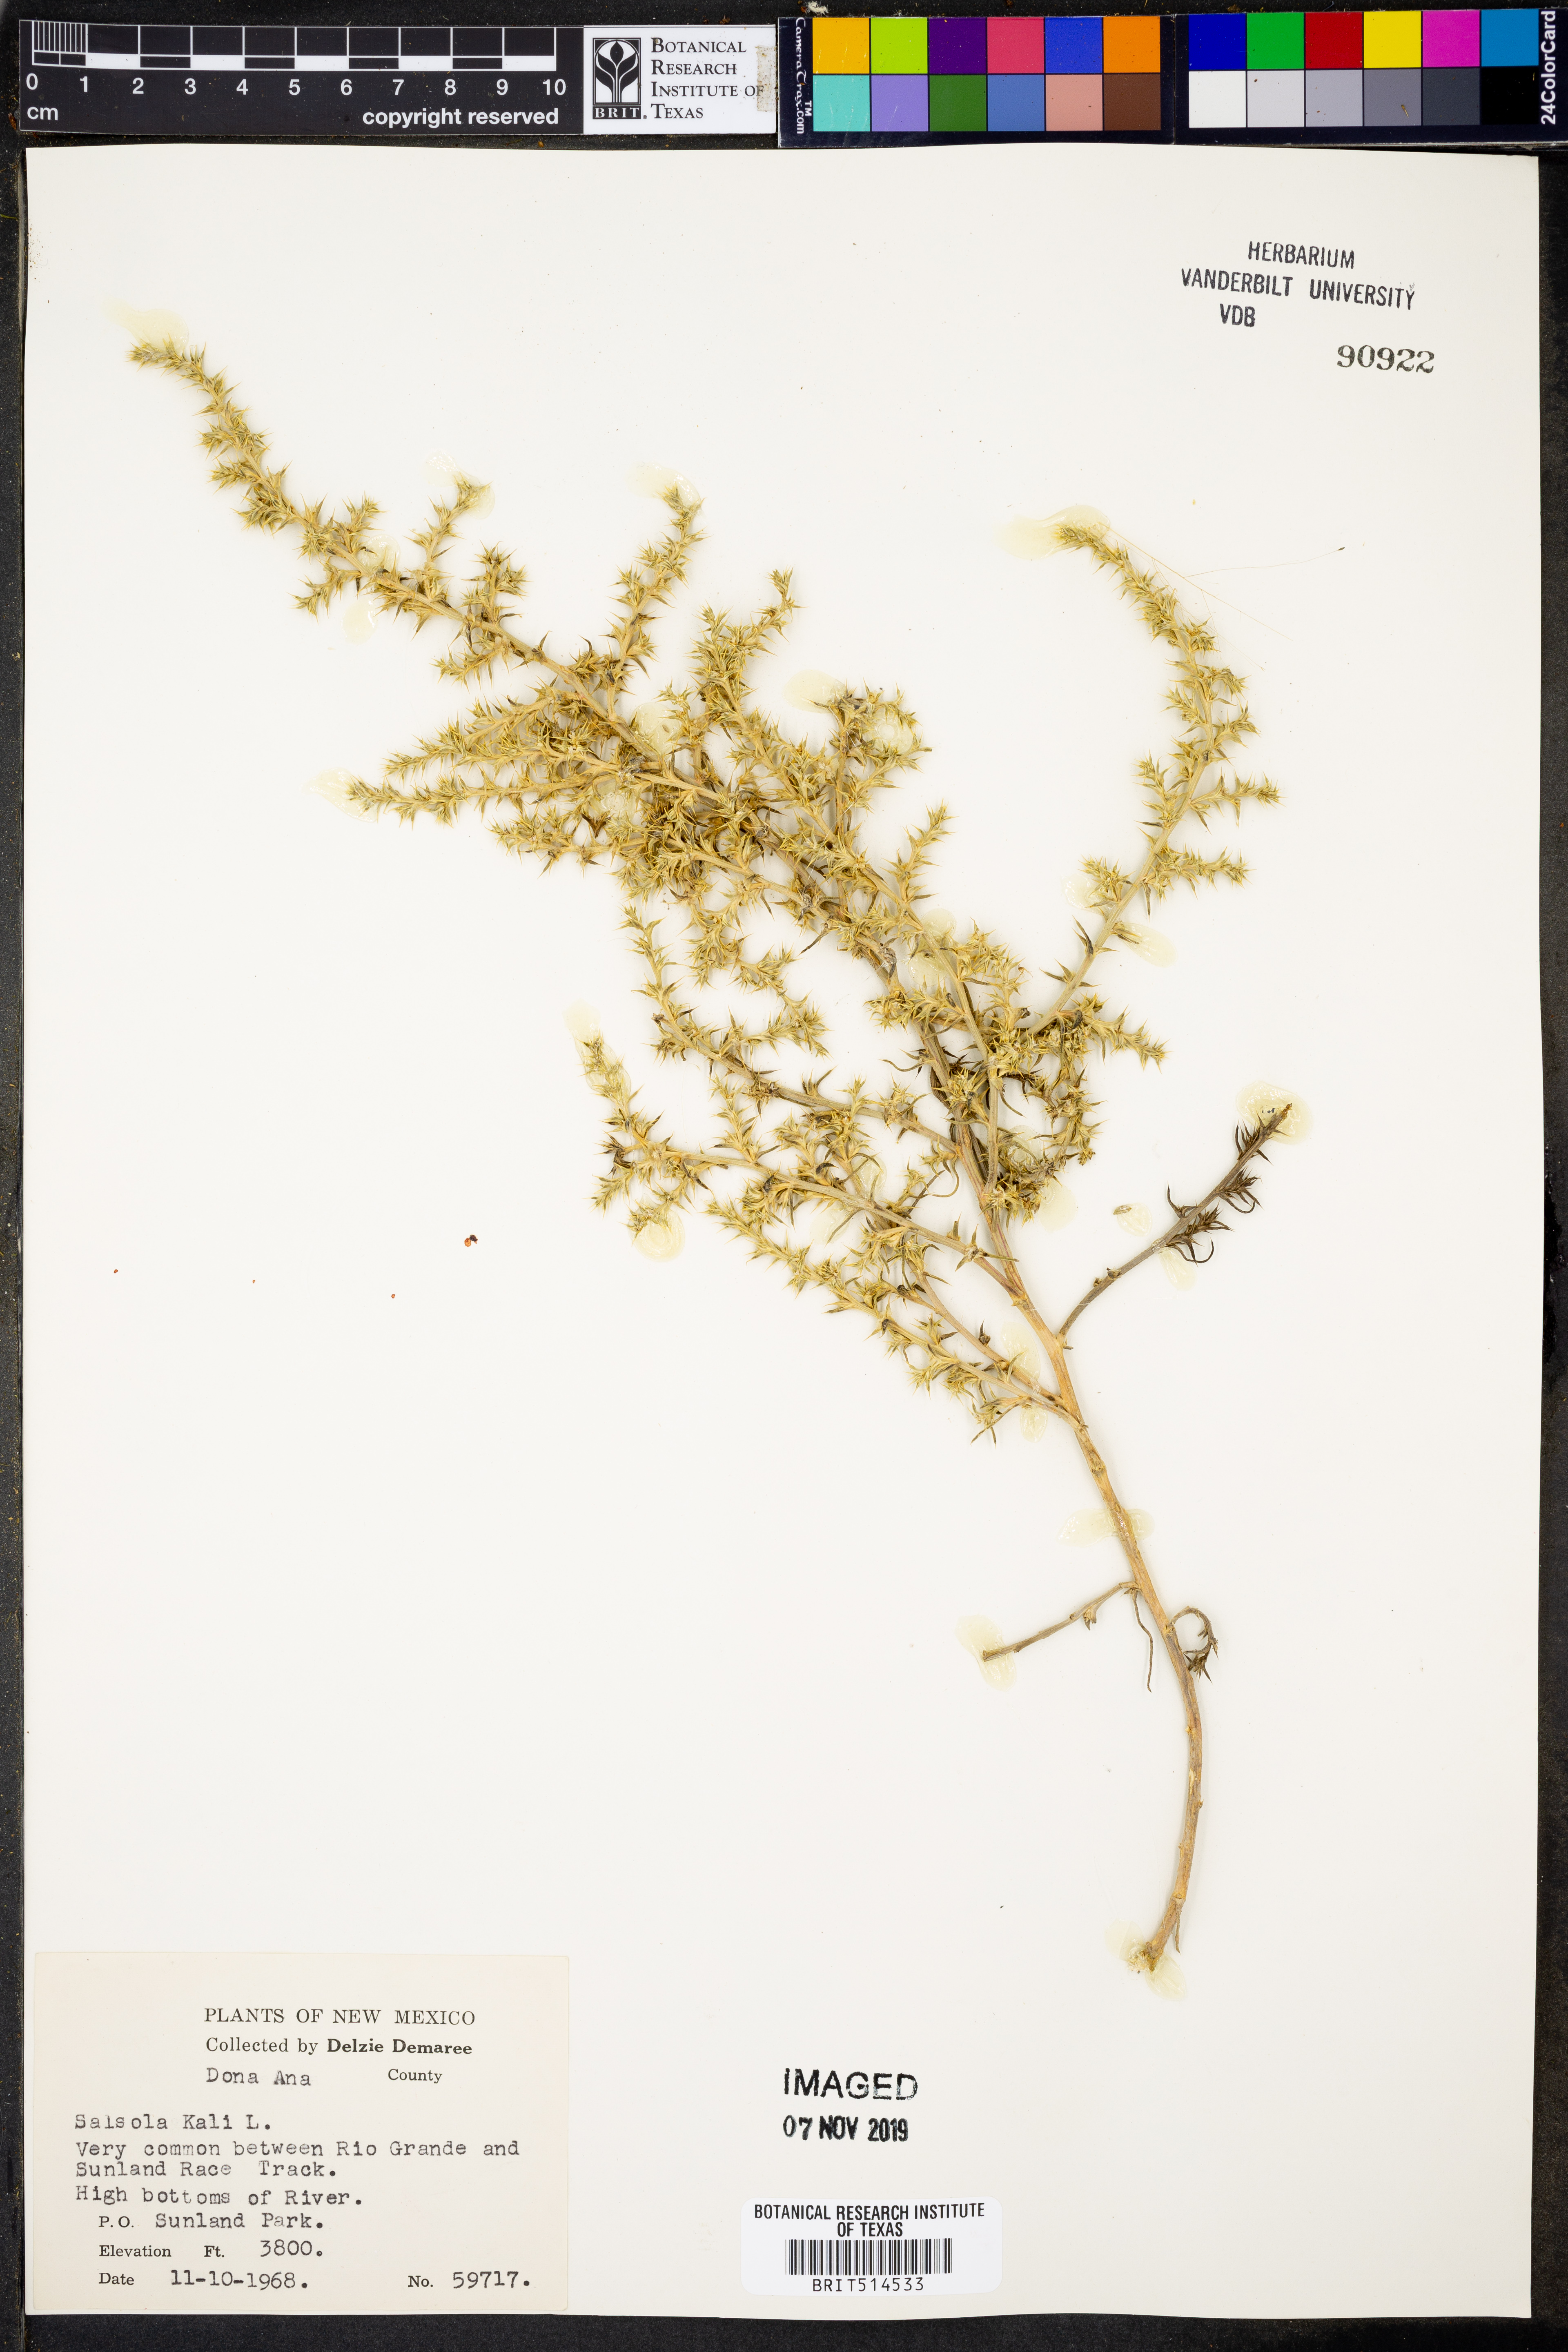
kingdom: Plantae
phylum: Tracheophyta
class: Magnoliopsida
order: Caryophyllales
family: Amaranthaceae
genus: Salsola
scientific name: Salsola kali
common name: Saltwort
